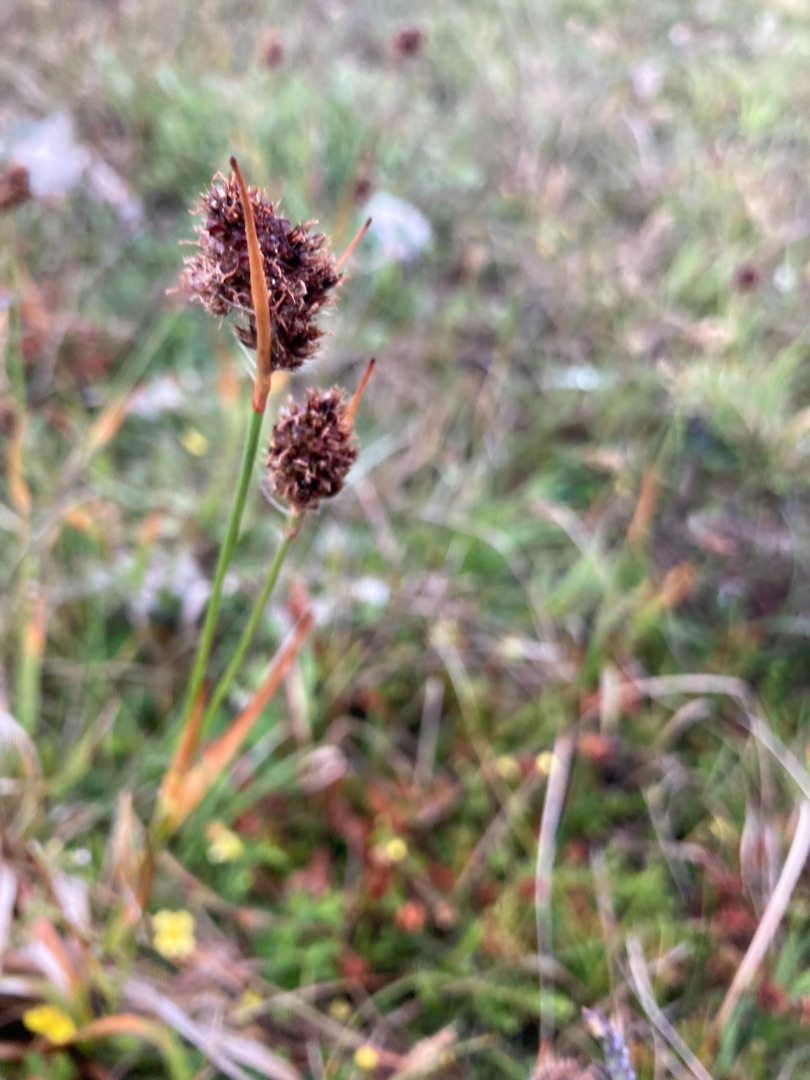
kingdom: Plantae
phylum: Tracheophyta
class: Liliopsida
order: Poales
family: Juncaceae
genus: Luzula
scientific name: Luzula congesta
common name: Hoved-frytle
